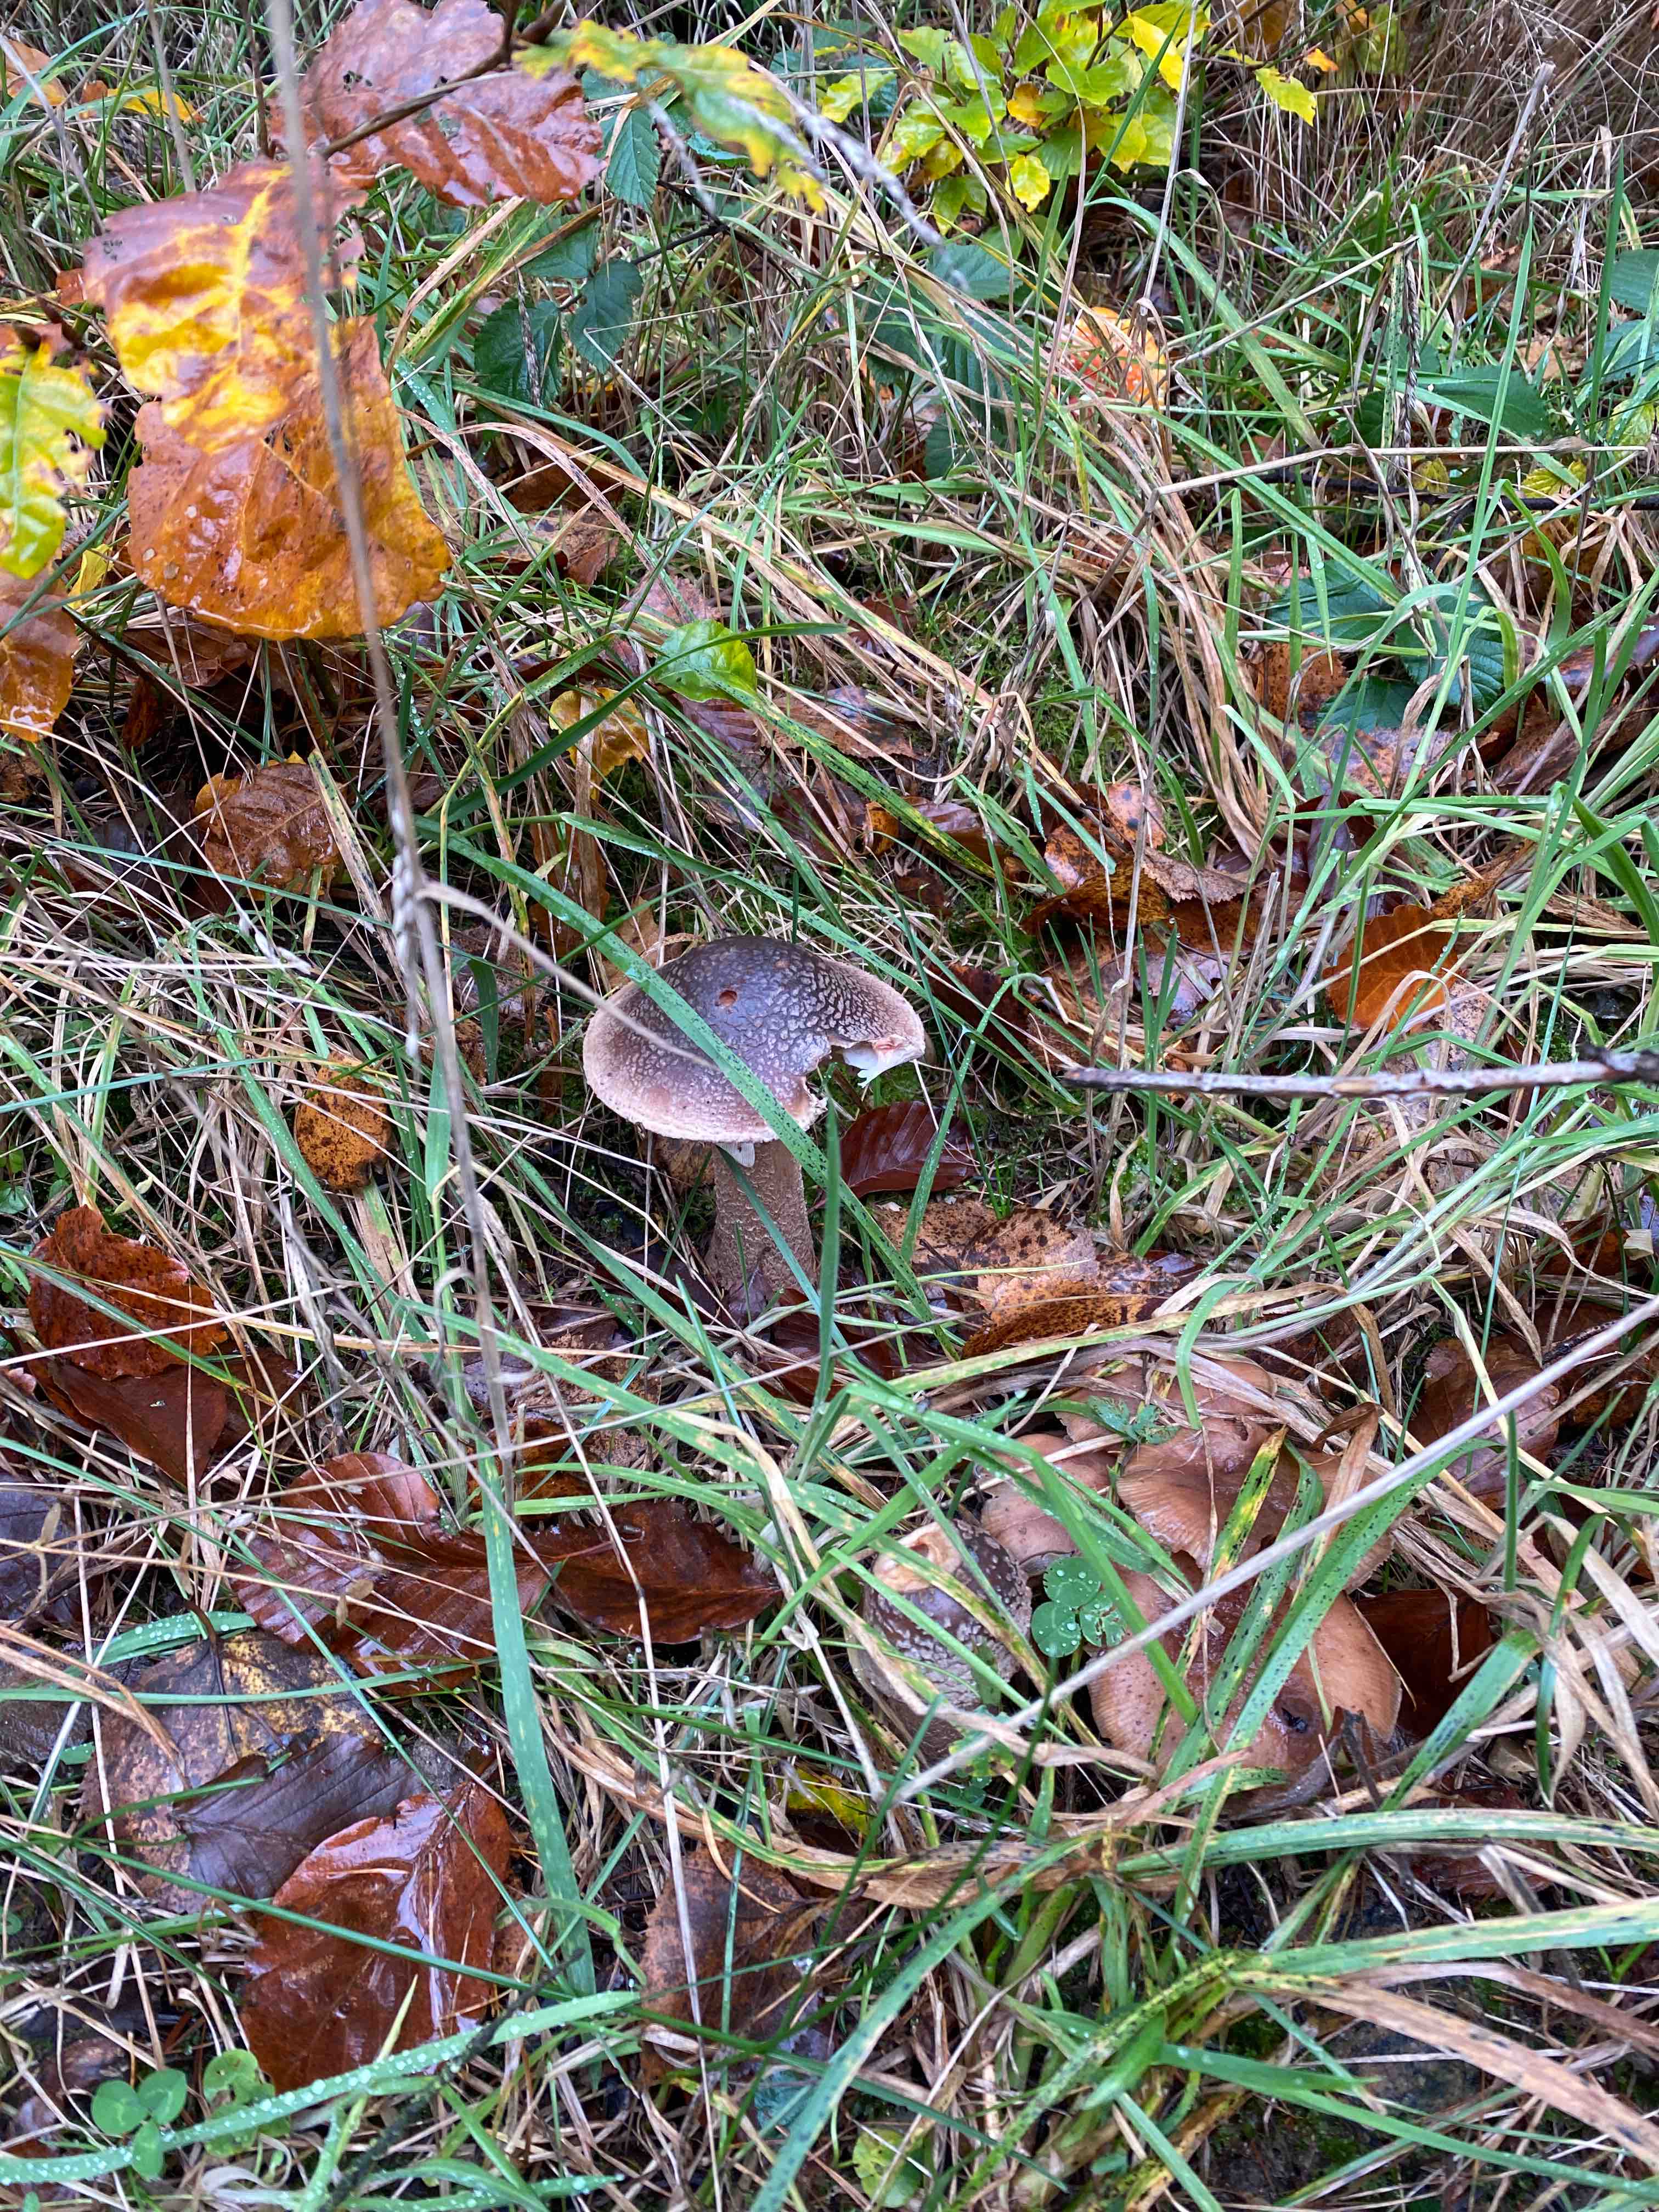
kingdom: Fungi
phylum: Basidiomycota
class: Agaricomycetes
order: Agaricales
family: Amanitaceae
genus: Amanita
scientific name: Amanita rubescens
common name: rødmende fluesvamp
